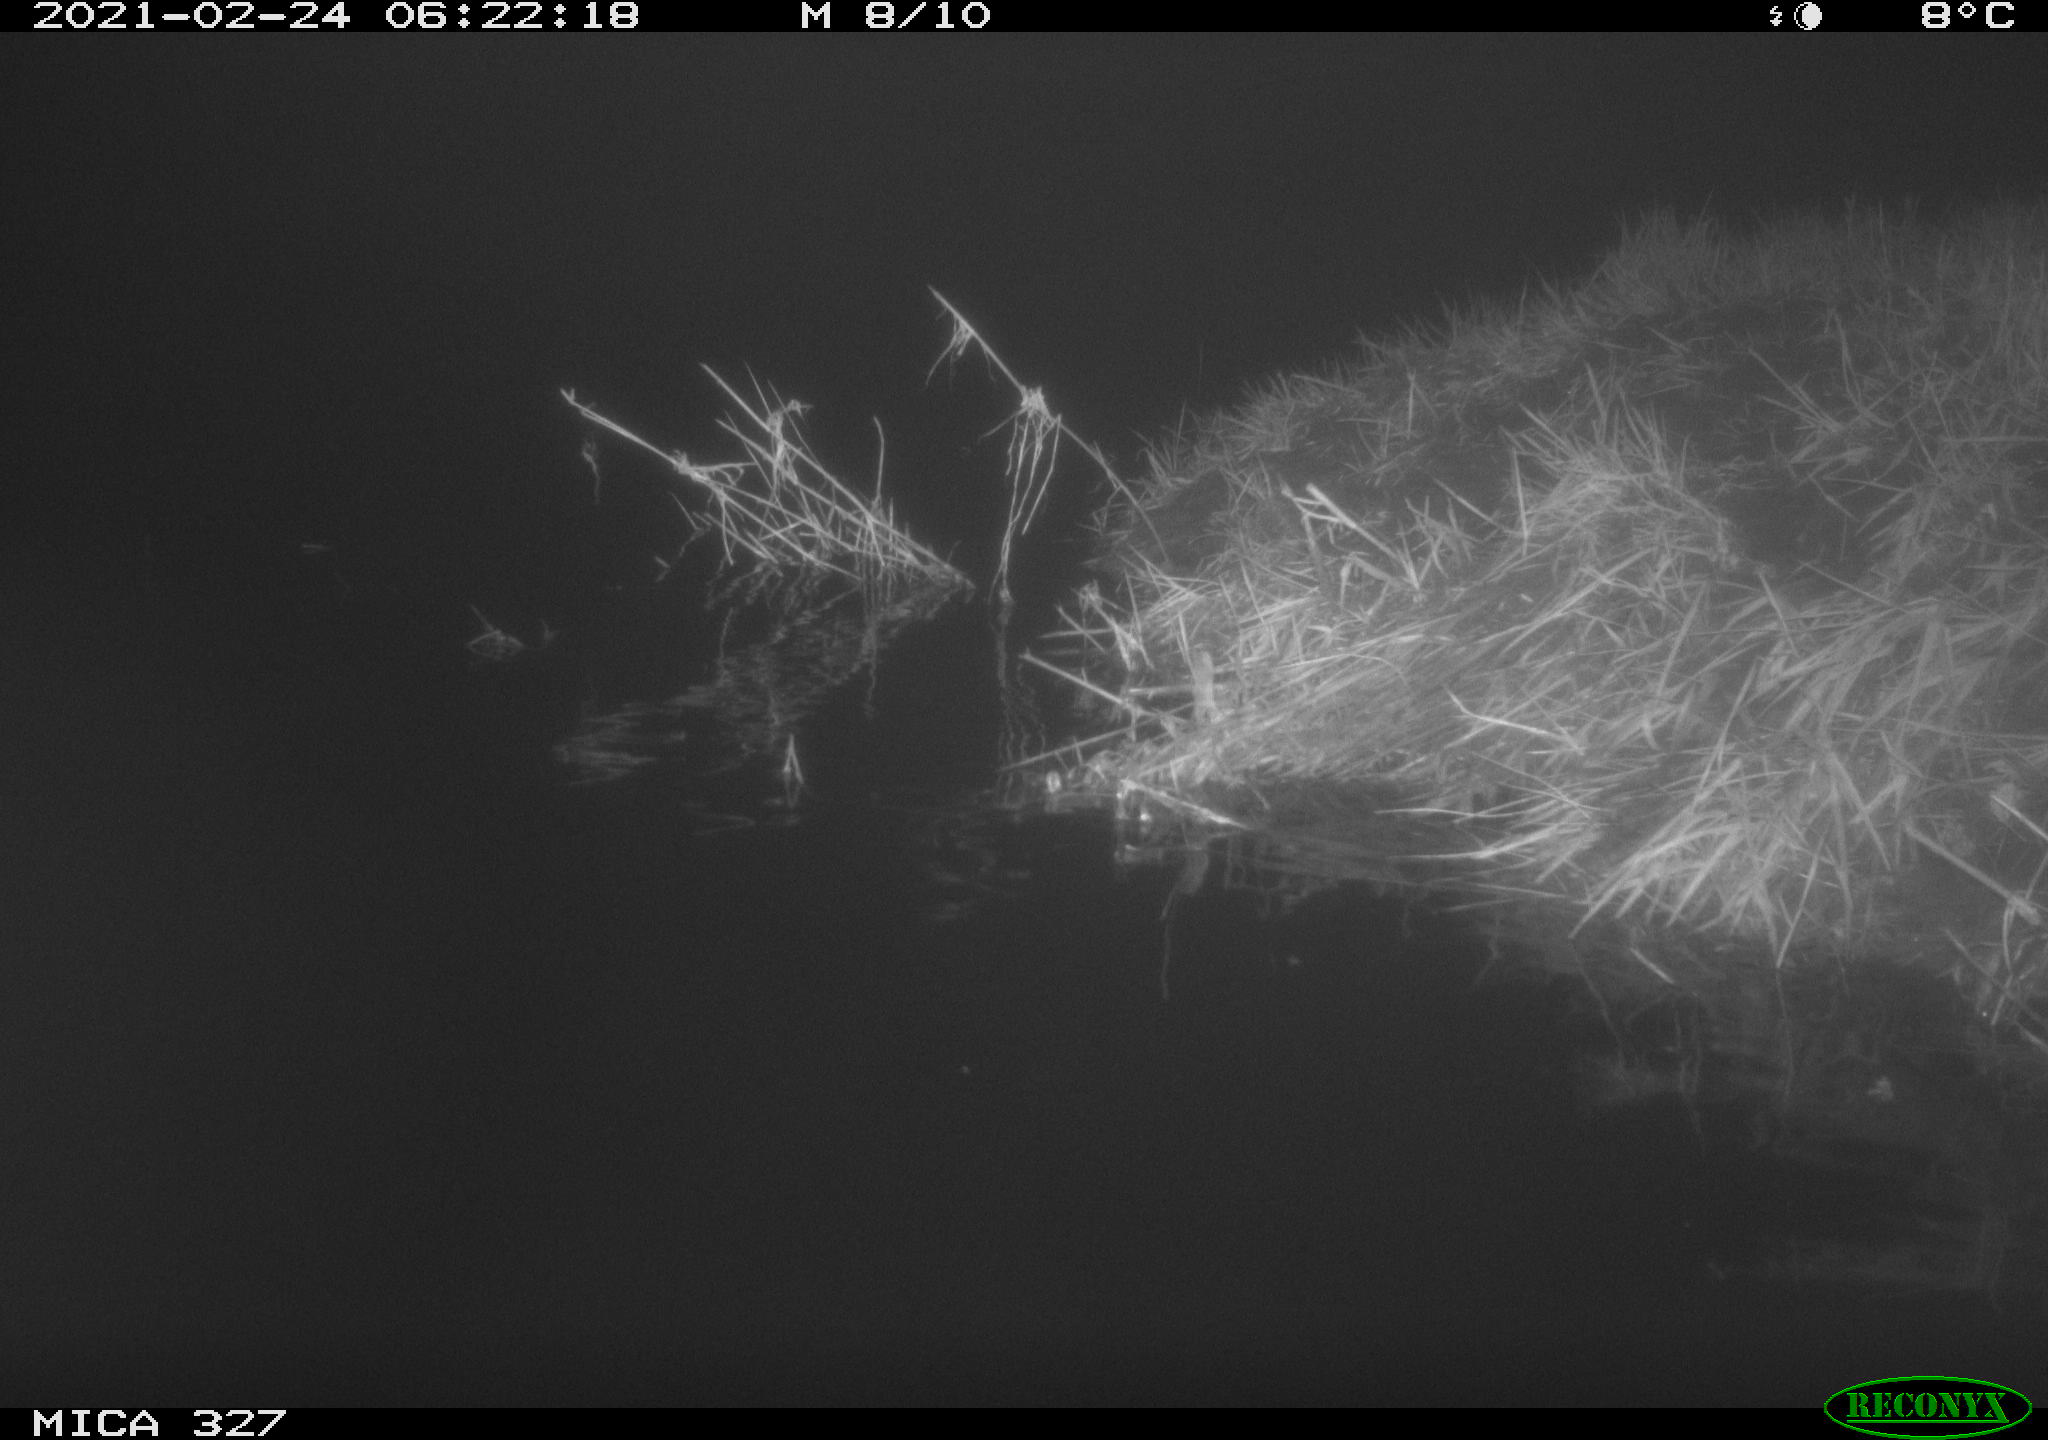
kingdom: Animalia
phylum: Chordata
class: Mammalia
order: Rodentia
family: Cricetidae
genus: Ondatra
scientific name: Ondatra zibethicus
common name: Muskrat
